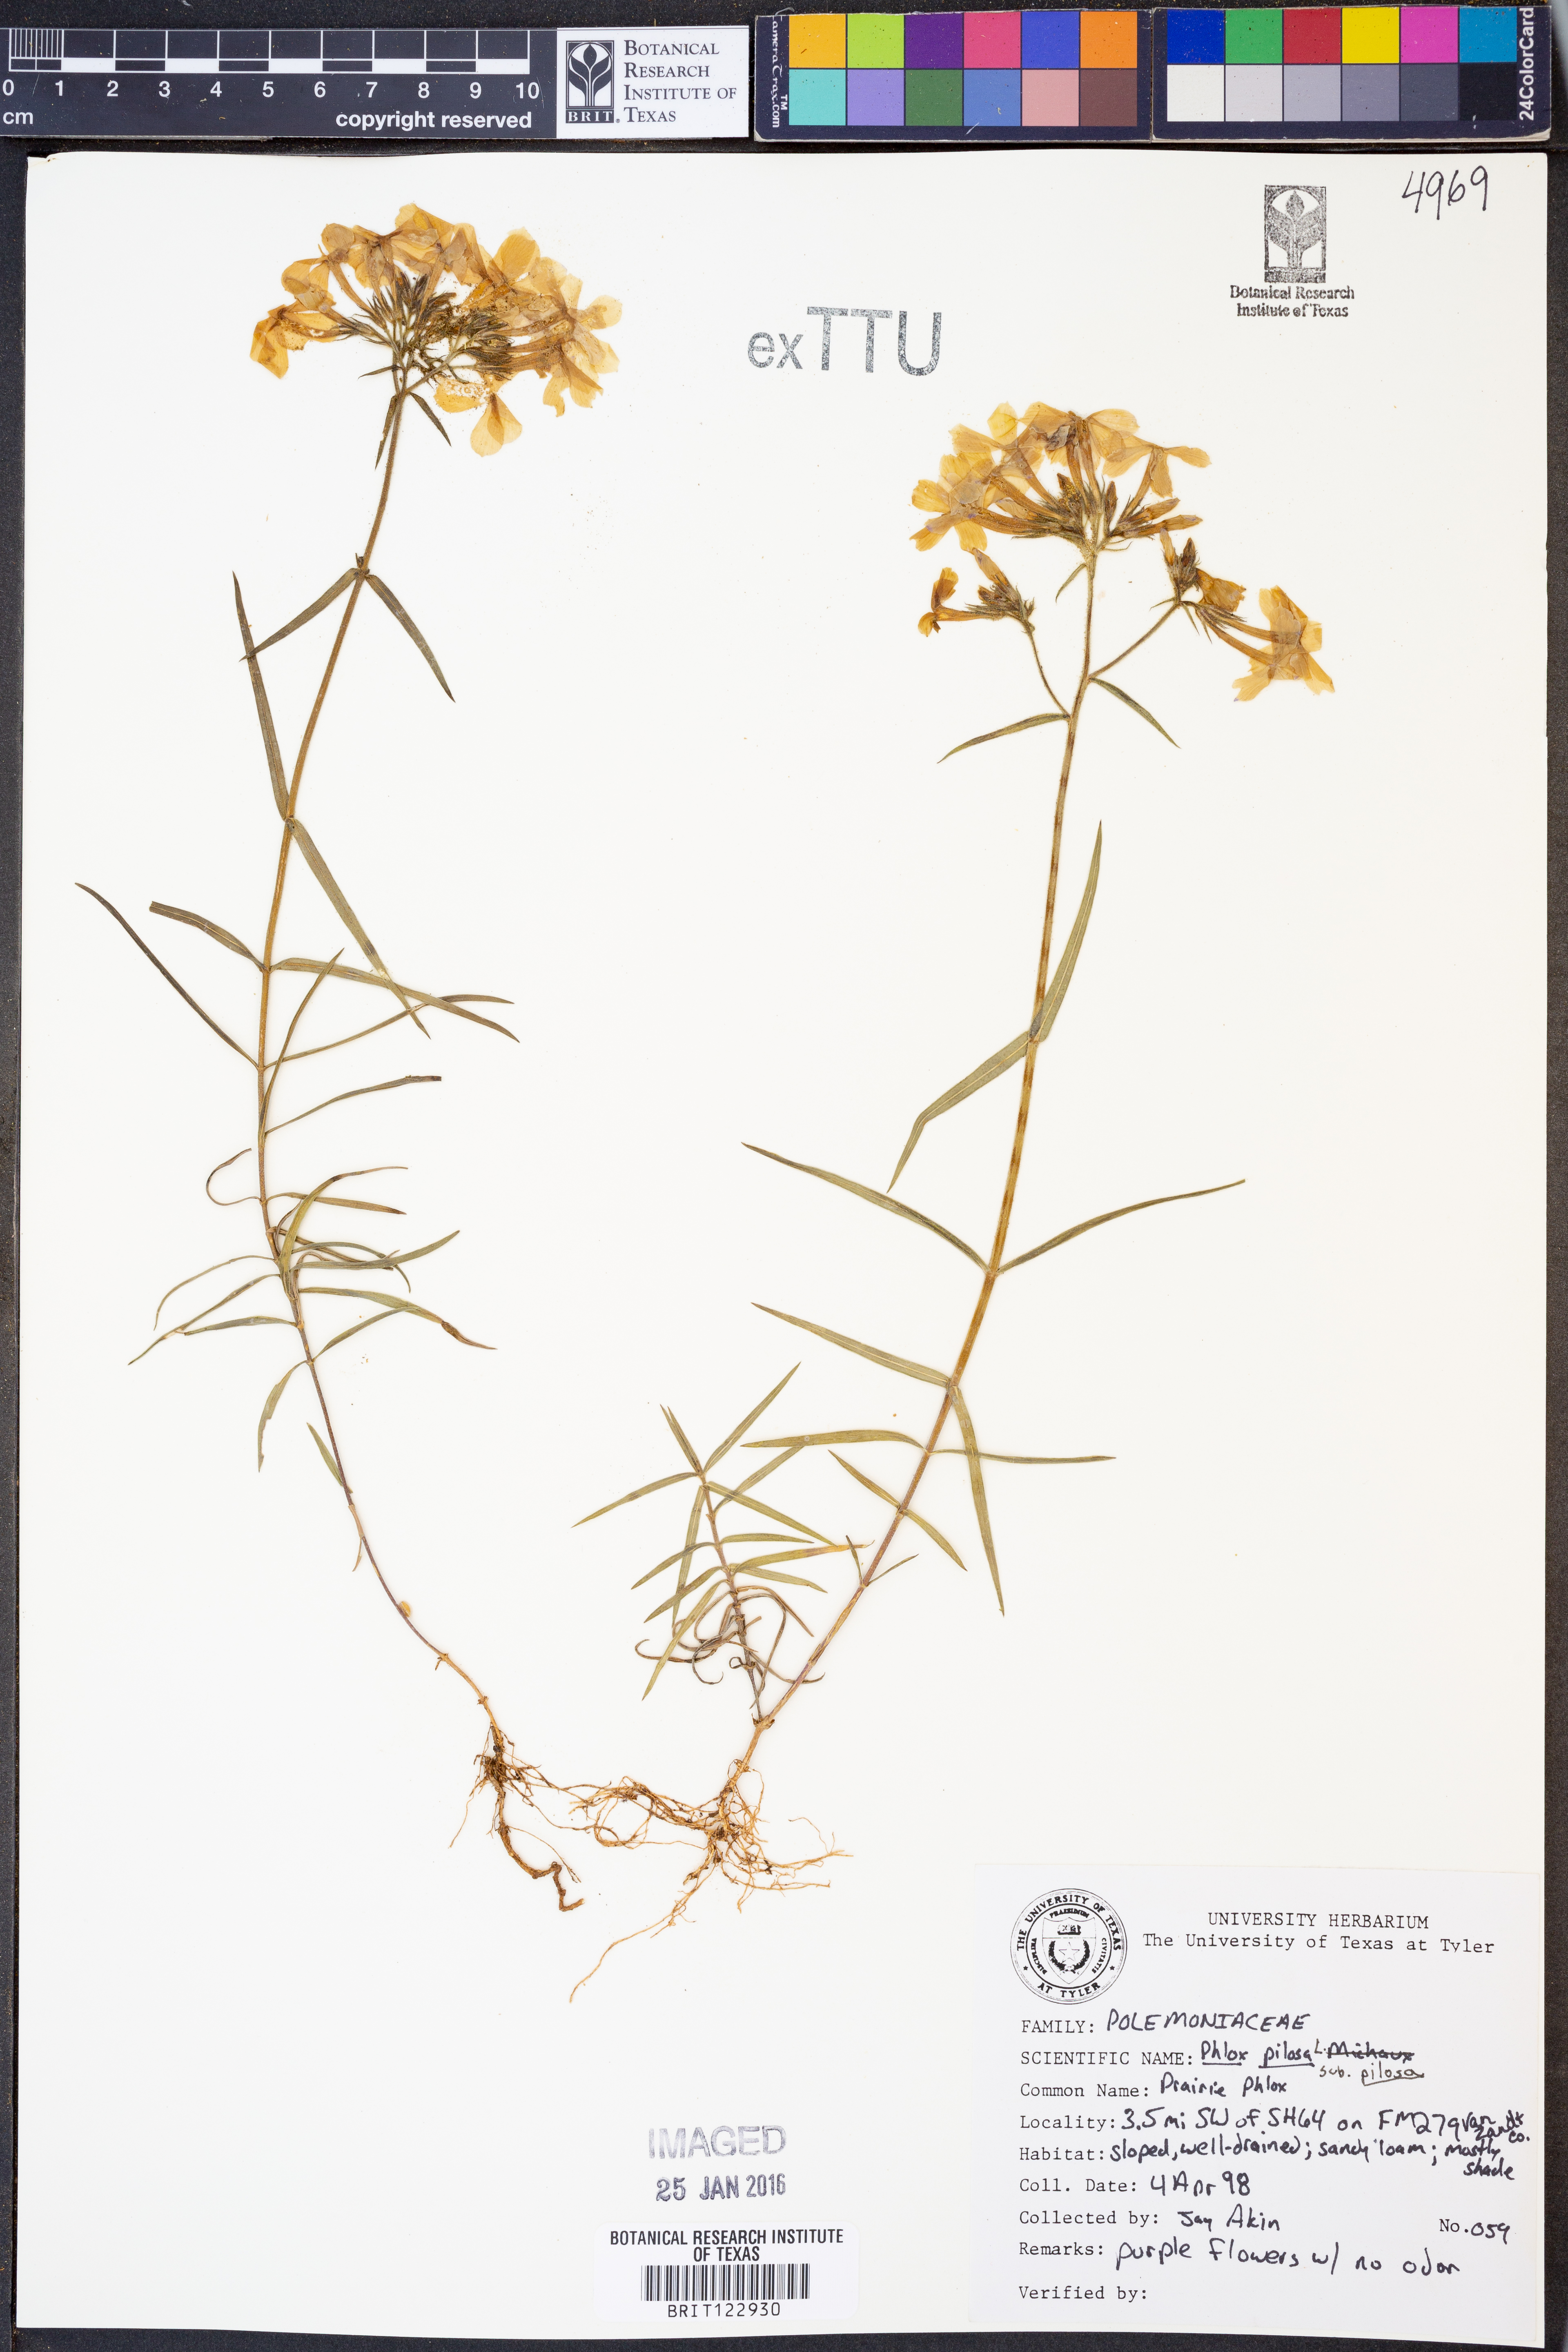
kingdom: Plantae
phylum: Tracheophyta
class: Magnoliopsida
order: Ericales
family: Polemoniaceae
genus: Phlox
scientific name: Phlox pilosa
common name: Prairie phlox
